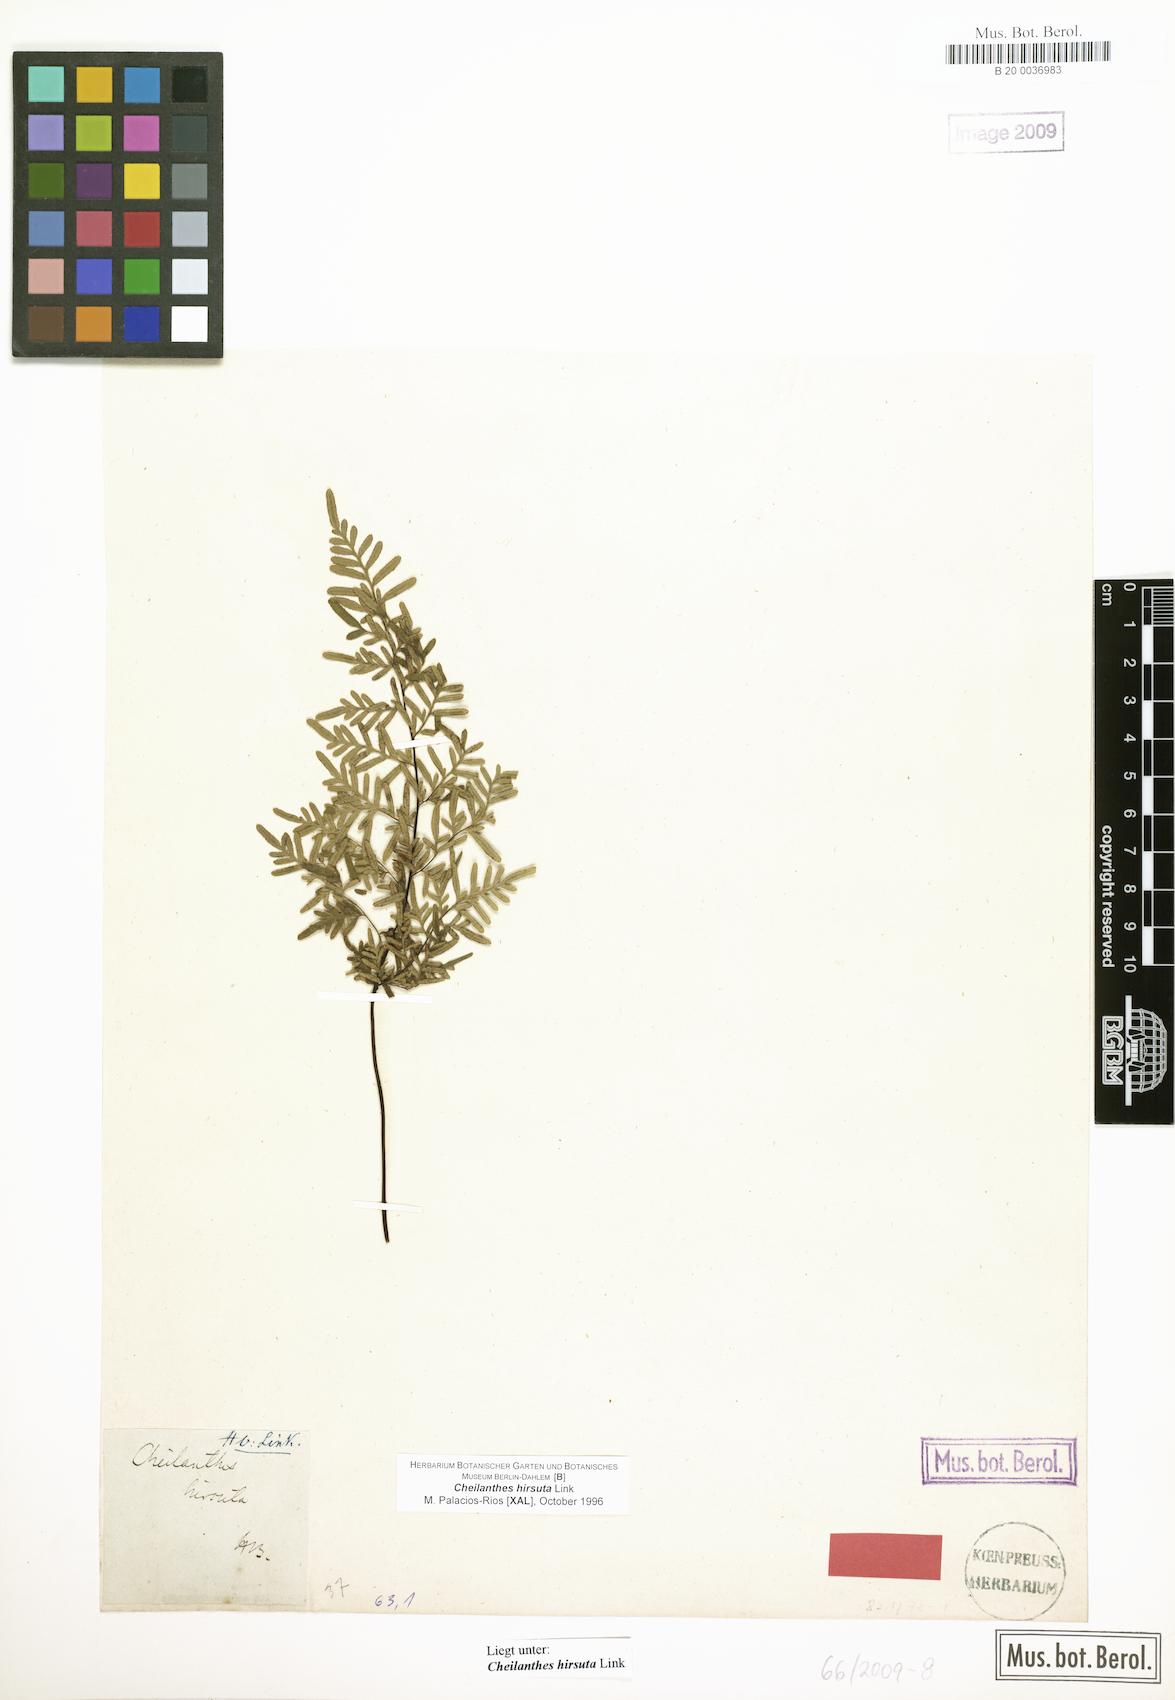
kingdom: Plantae
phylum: Tracheophyta
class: Polypodiopsida
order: Polypodiales
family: Pteridaceae
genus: Gaga
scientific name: Gaga hirsuta
